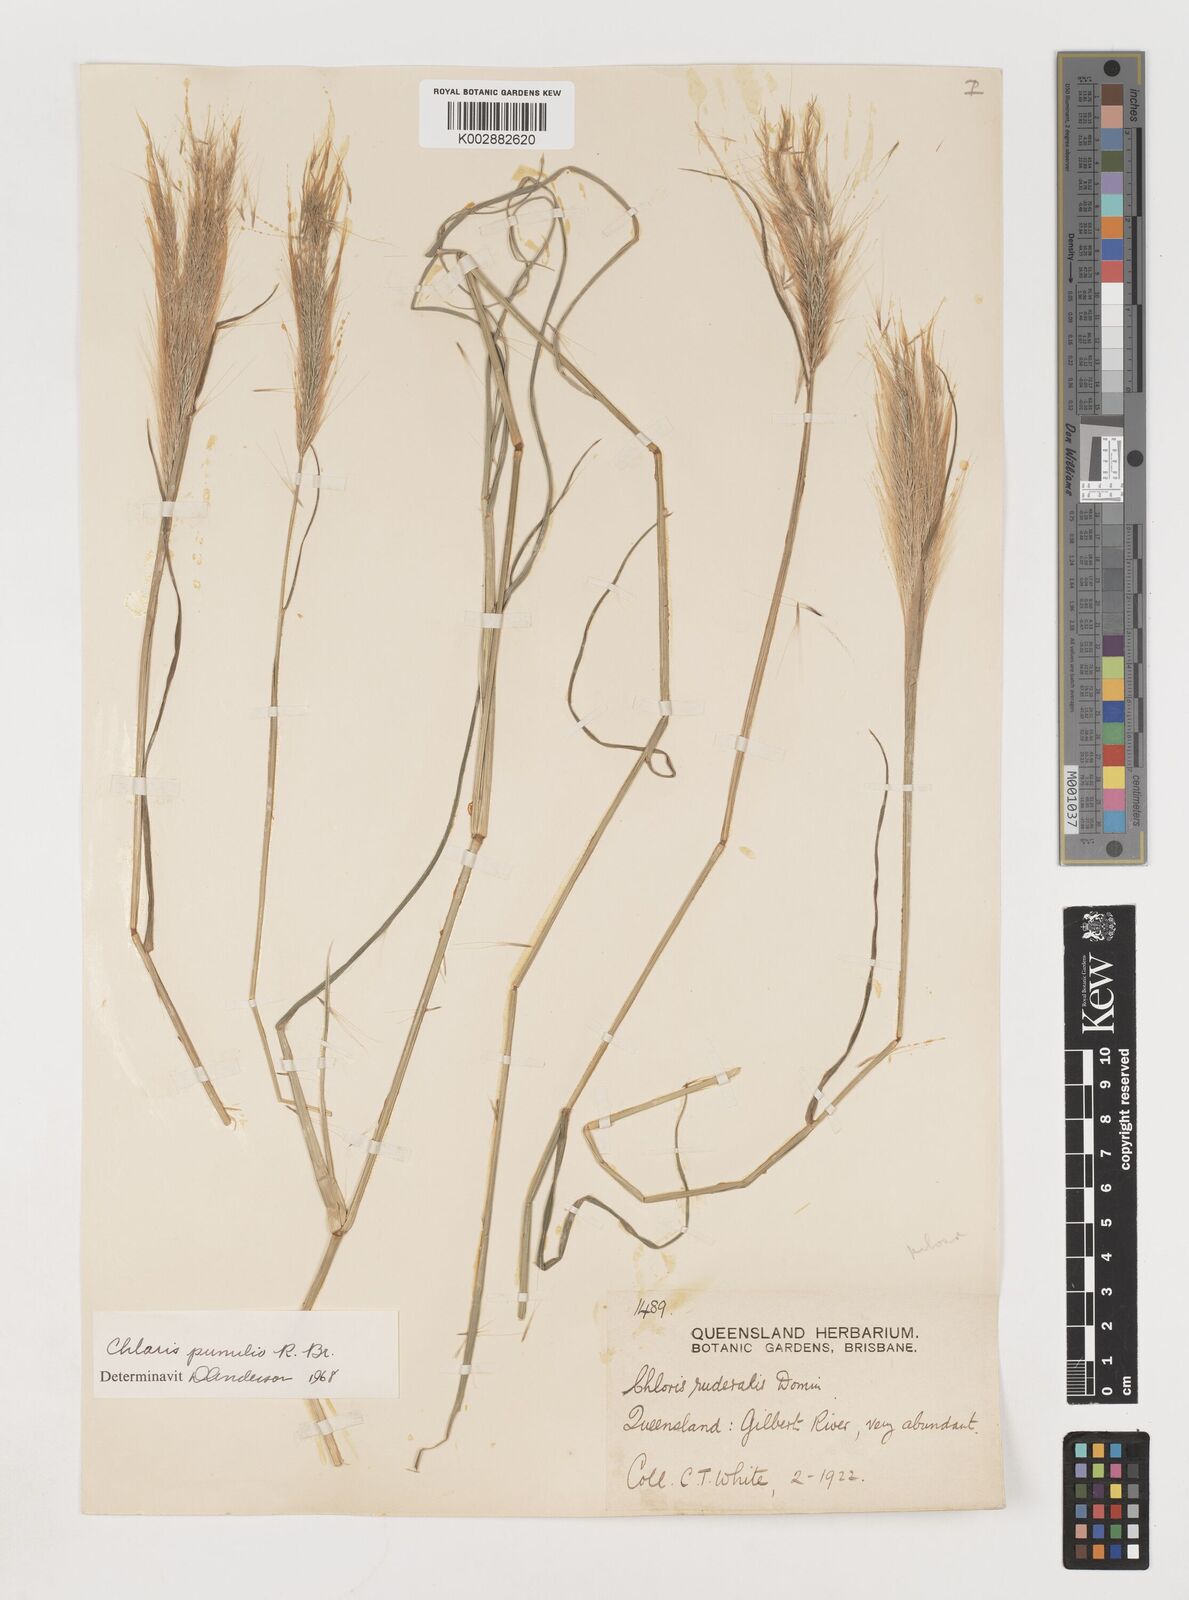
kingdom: Plantae
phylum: Tracheophyta
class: Liliopsida
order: Poales
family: Poaceae
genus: Chloris
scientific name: Chloris pumilio
